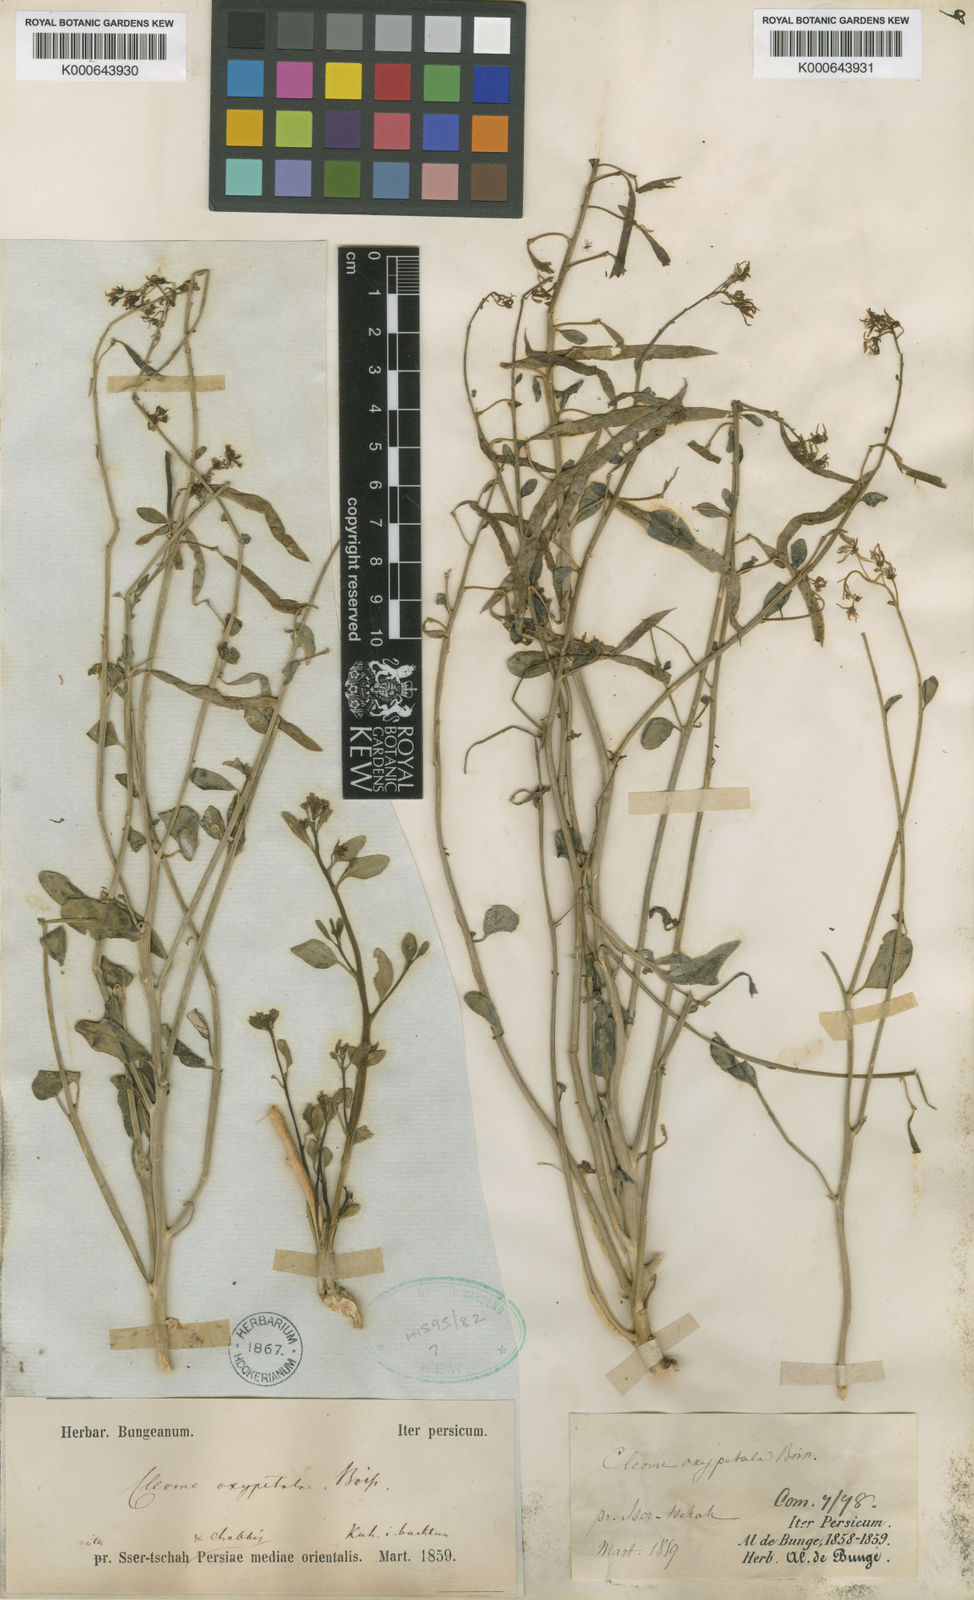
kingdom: Plantae
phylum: Tracheophyta
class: Magnoliopsida
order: Brassicales
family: Cleomaceae
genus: Cleome
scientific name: Cleome oxypetala
